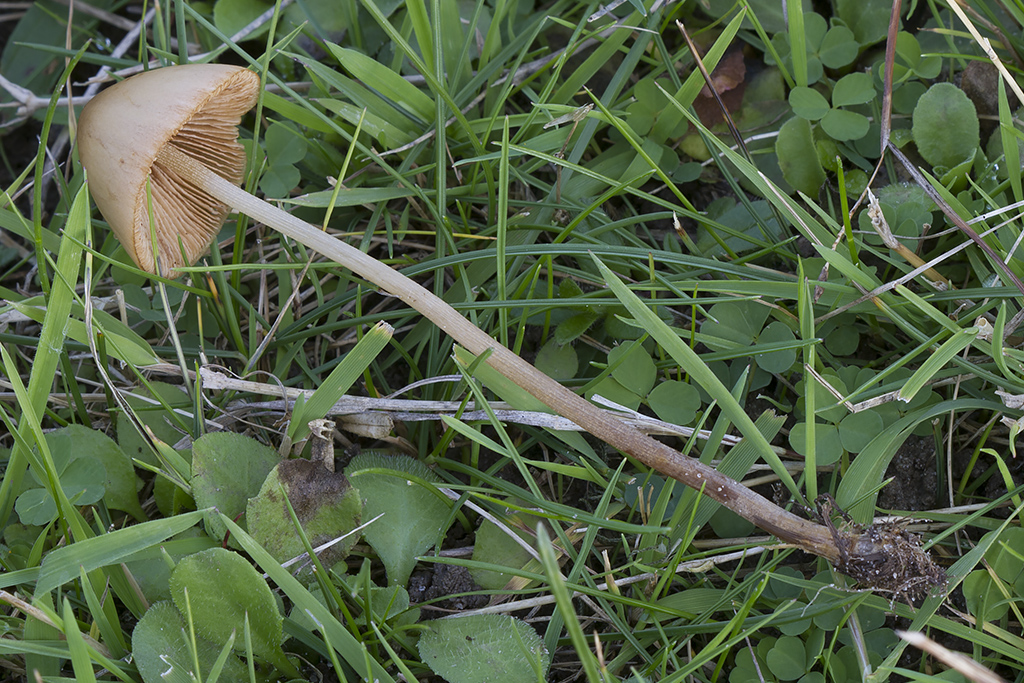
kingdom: Fungi
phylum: Basidiomycota
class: Agaricomycetes
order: Agaricales
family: Bolbitiaceae
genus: Conocybe
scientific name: Conocybe subovalis
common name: hvælvet keglehat
